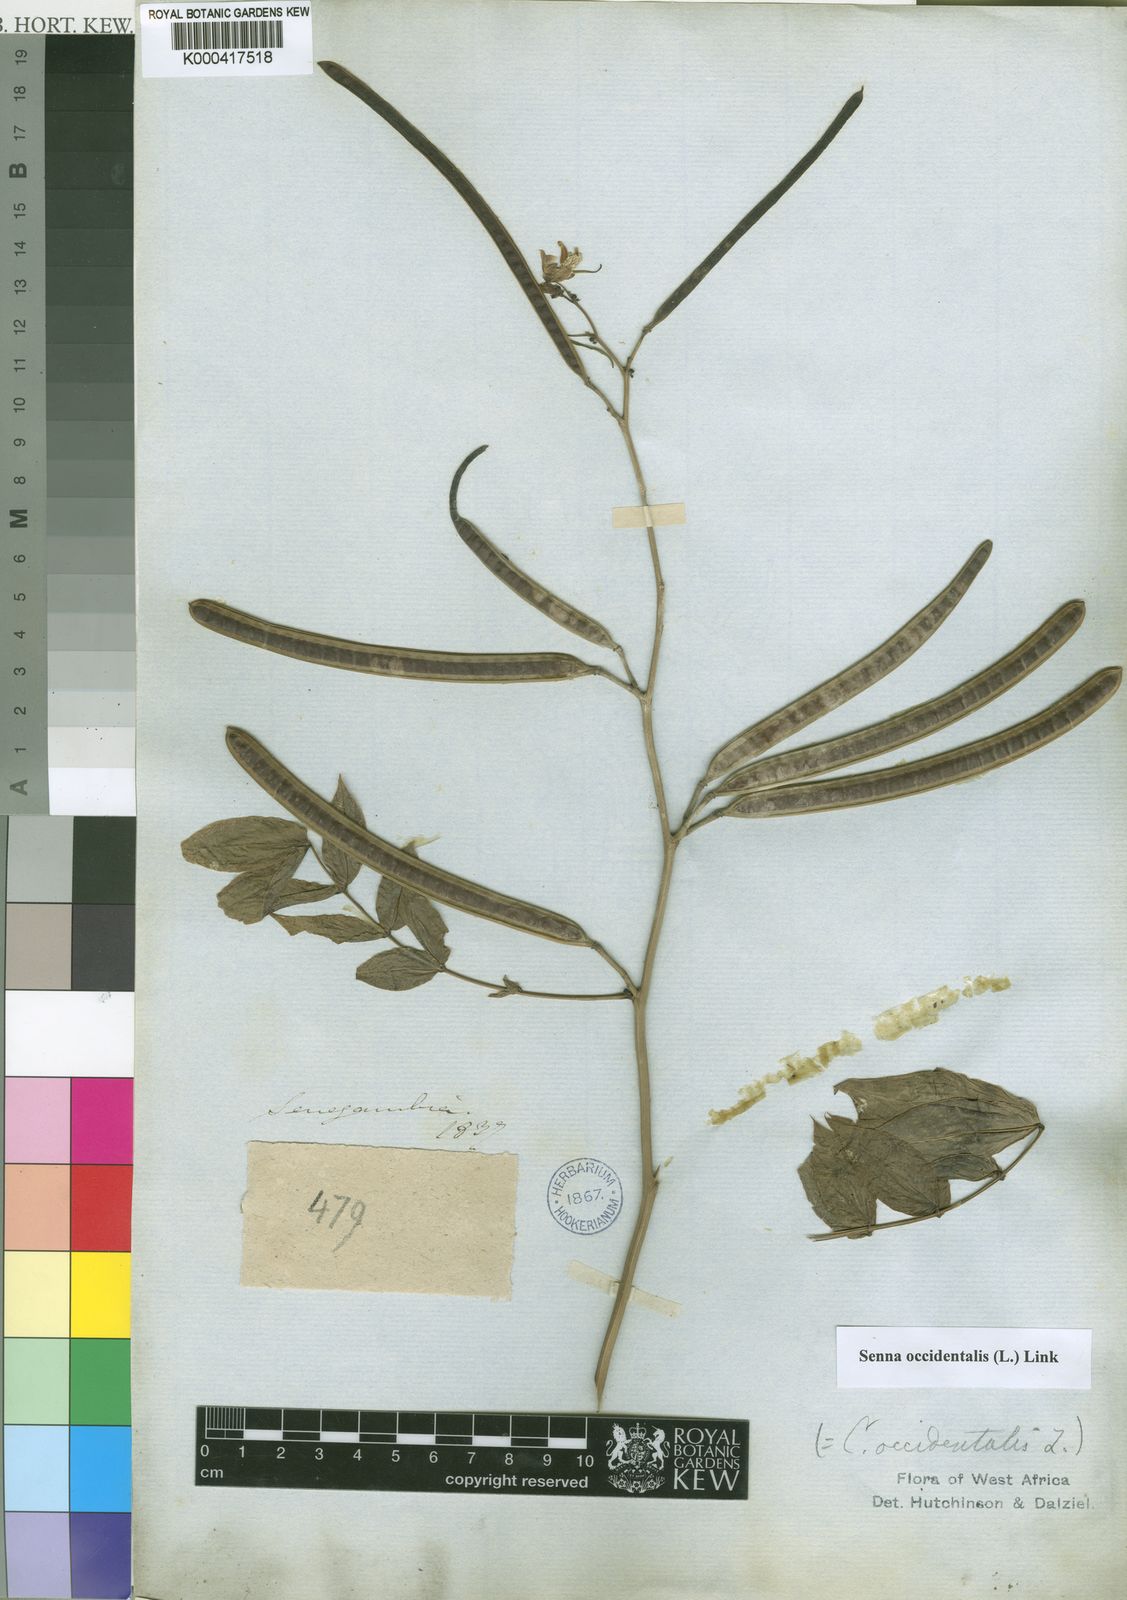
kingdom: Plantae
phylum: Tracheophyta
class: Magnoliopsida
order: Fabales
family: Fabaceae
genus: Senna
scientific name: Senna occidentalis
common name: Septicweed
